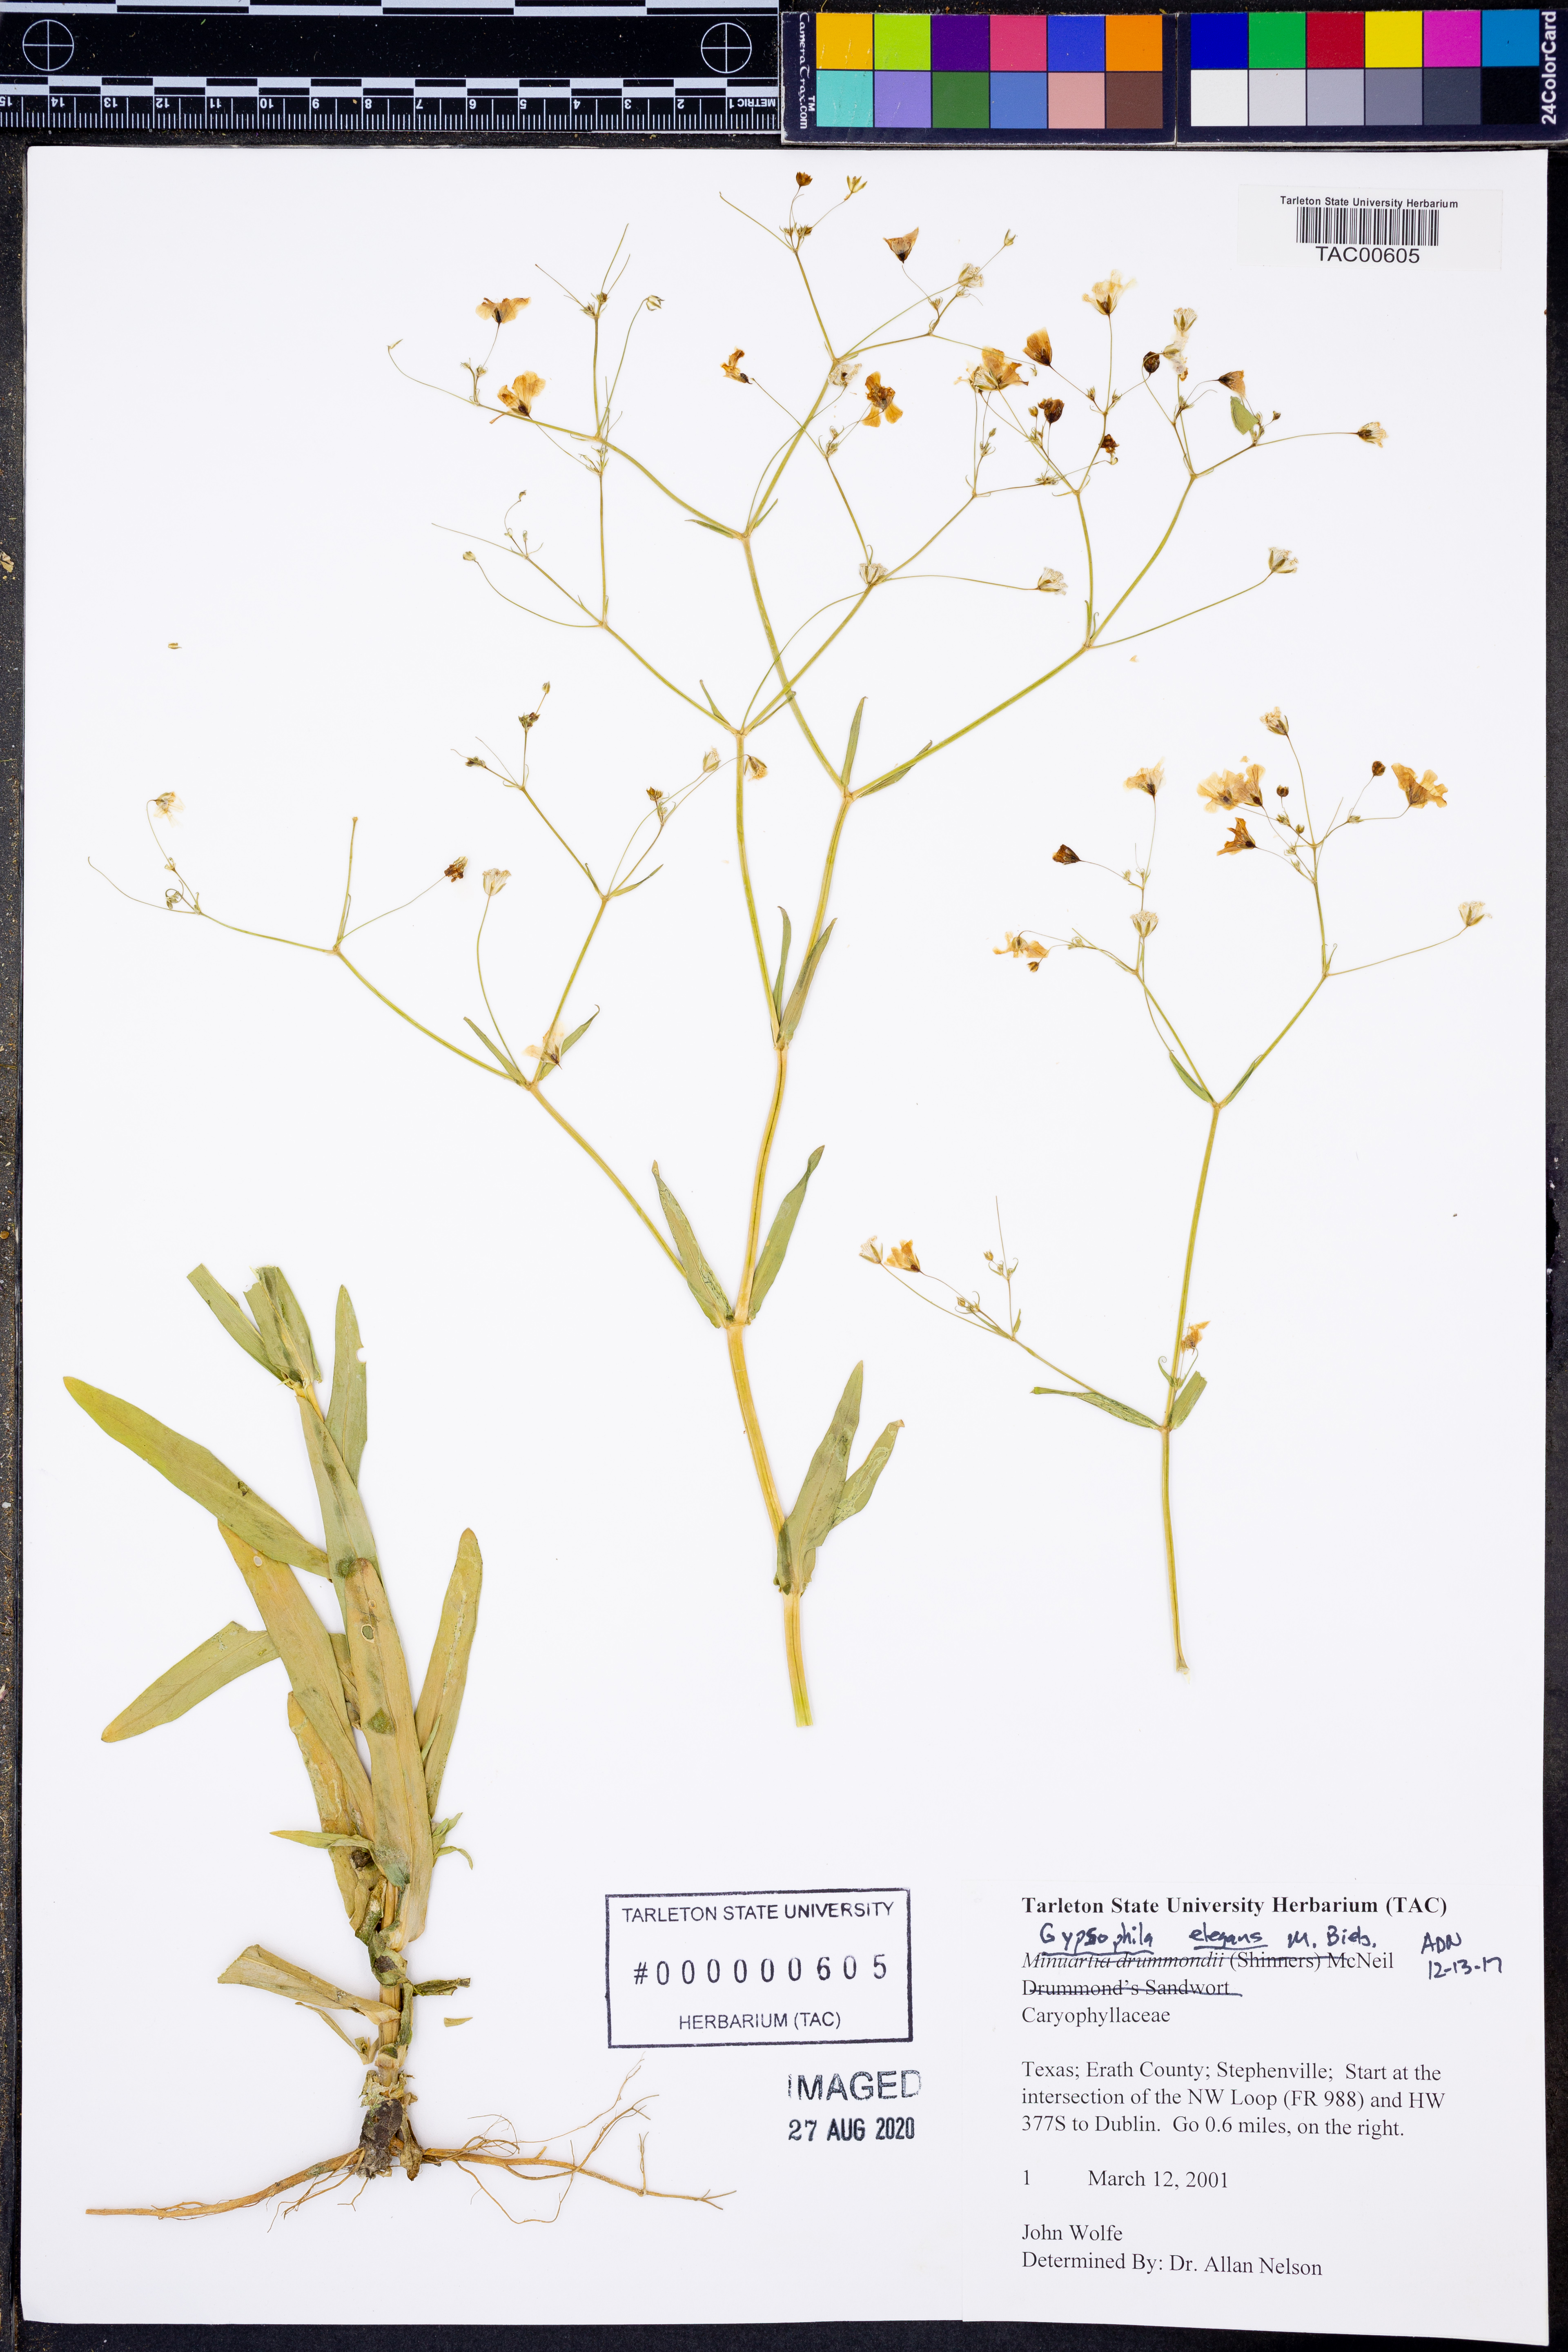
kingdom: Plantae
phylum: Tracheophyta
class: Magnoliopsida
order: Caryophyllales
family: Caryophyllaceae
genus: Gypsophila
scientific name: Gypsophila elegans
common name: Showy baby's-breath
